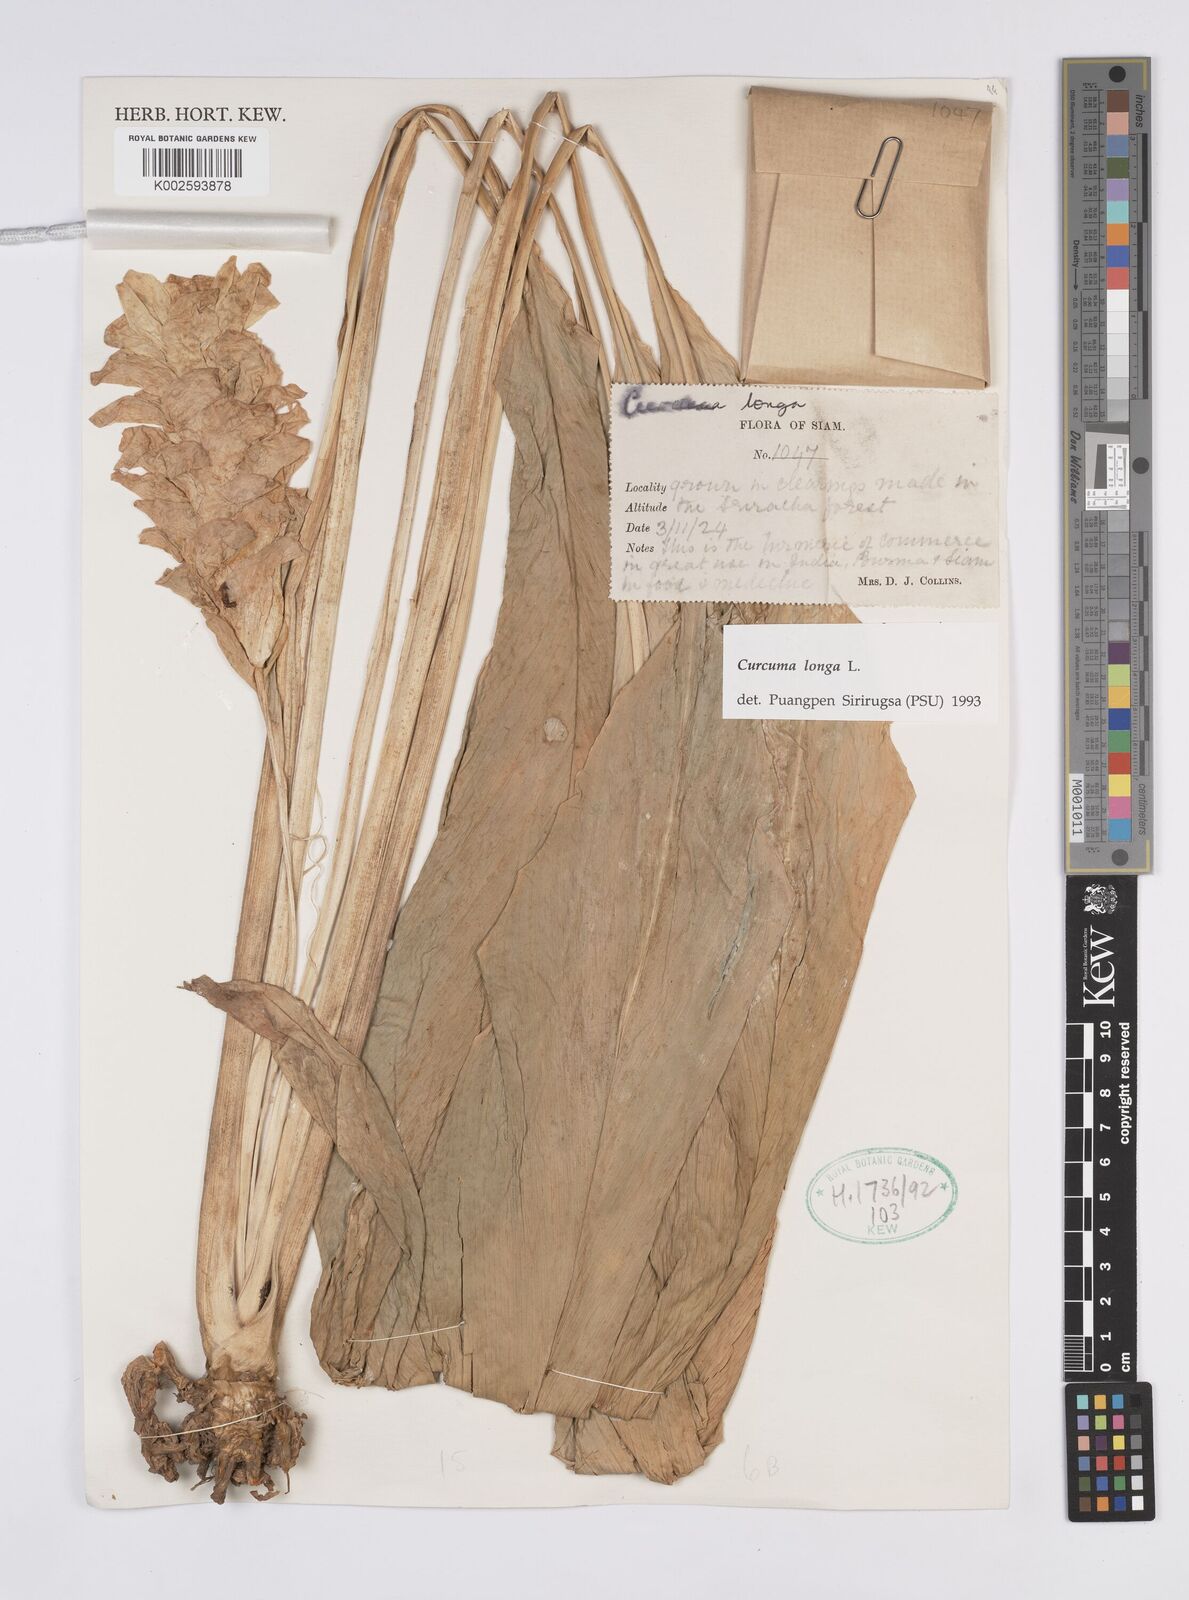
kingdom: Plantae
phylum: Tracheophyta
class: Liliopsida
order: Zingiberales
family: Zingiberaceae
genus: Curcuma
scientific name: Curcuma longa
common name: Turmeric
